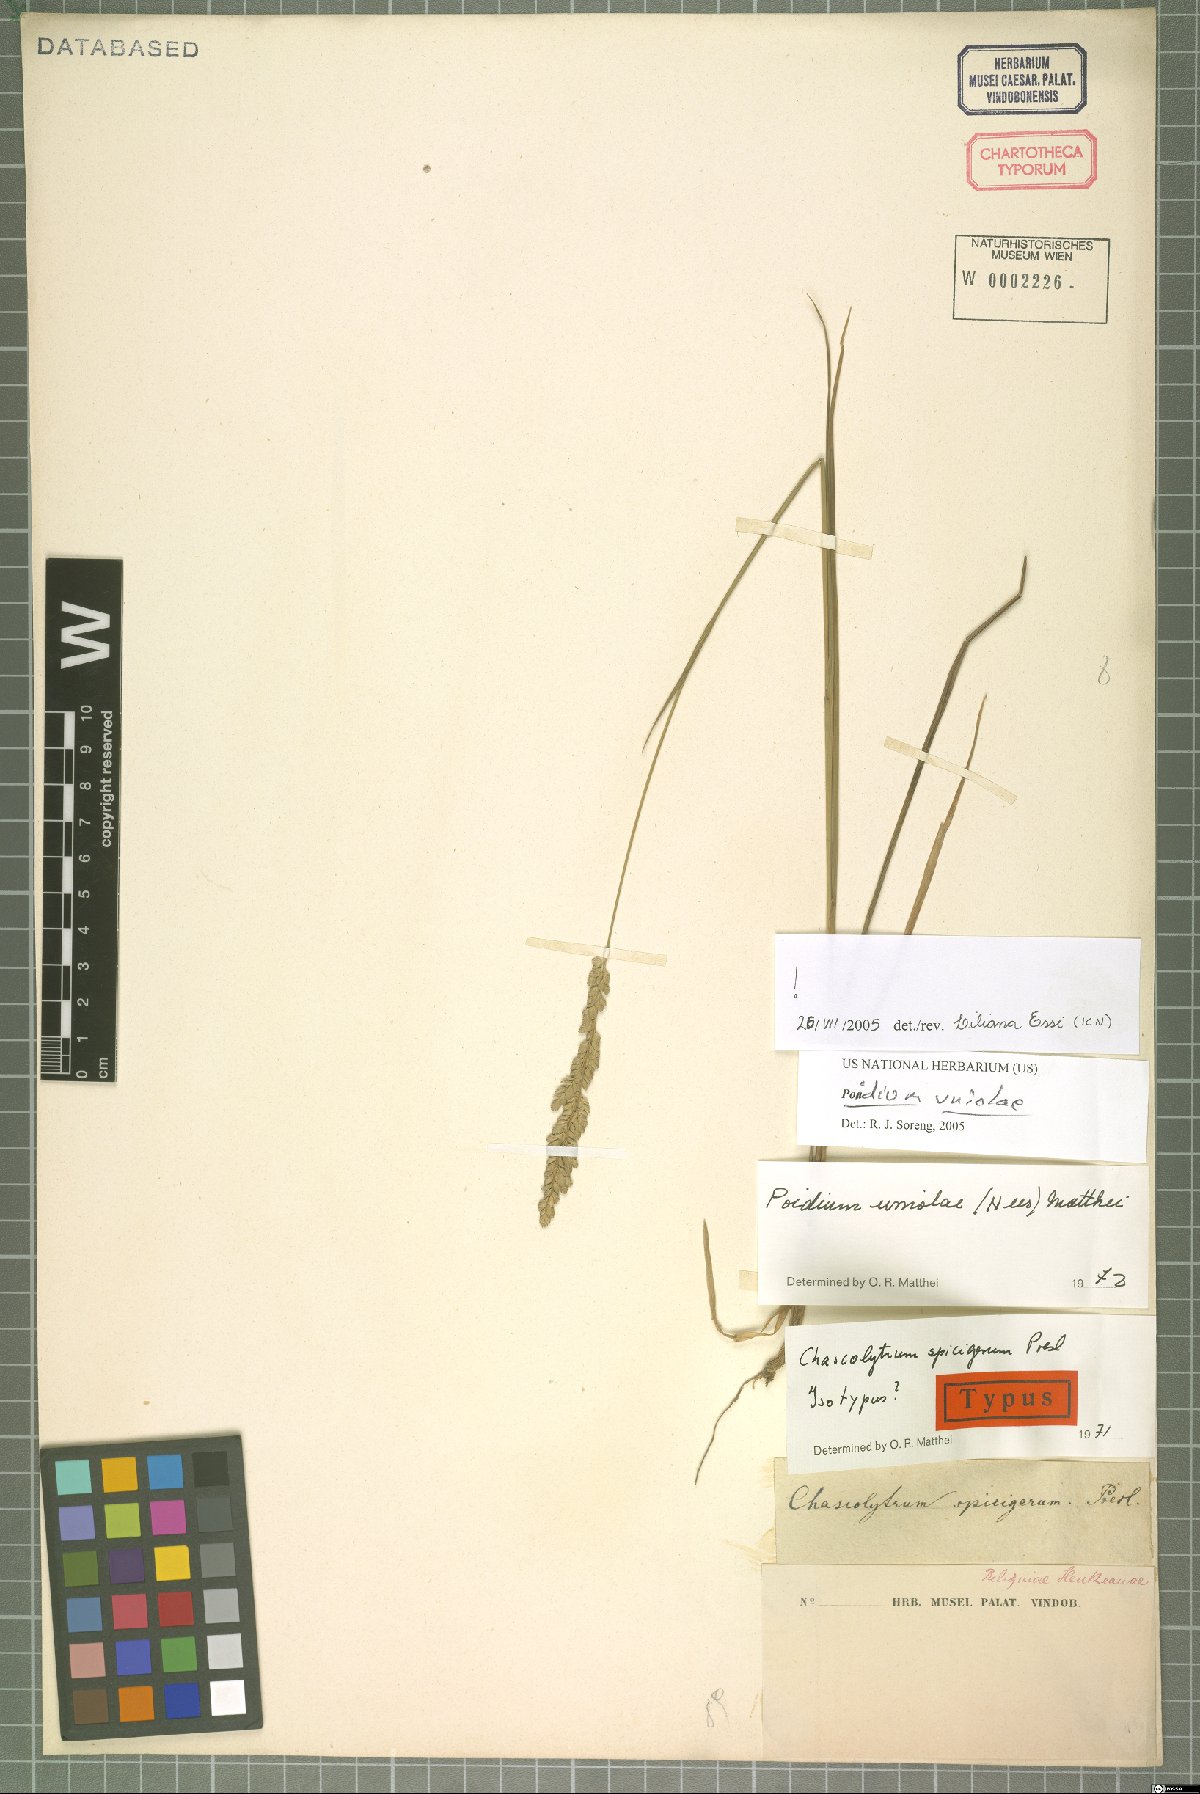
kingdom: Plantae
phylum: Tracheophyta
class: Liliopsida
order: Poales
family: Poaceae
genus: Poidium
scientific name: Poidium uniolae
